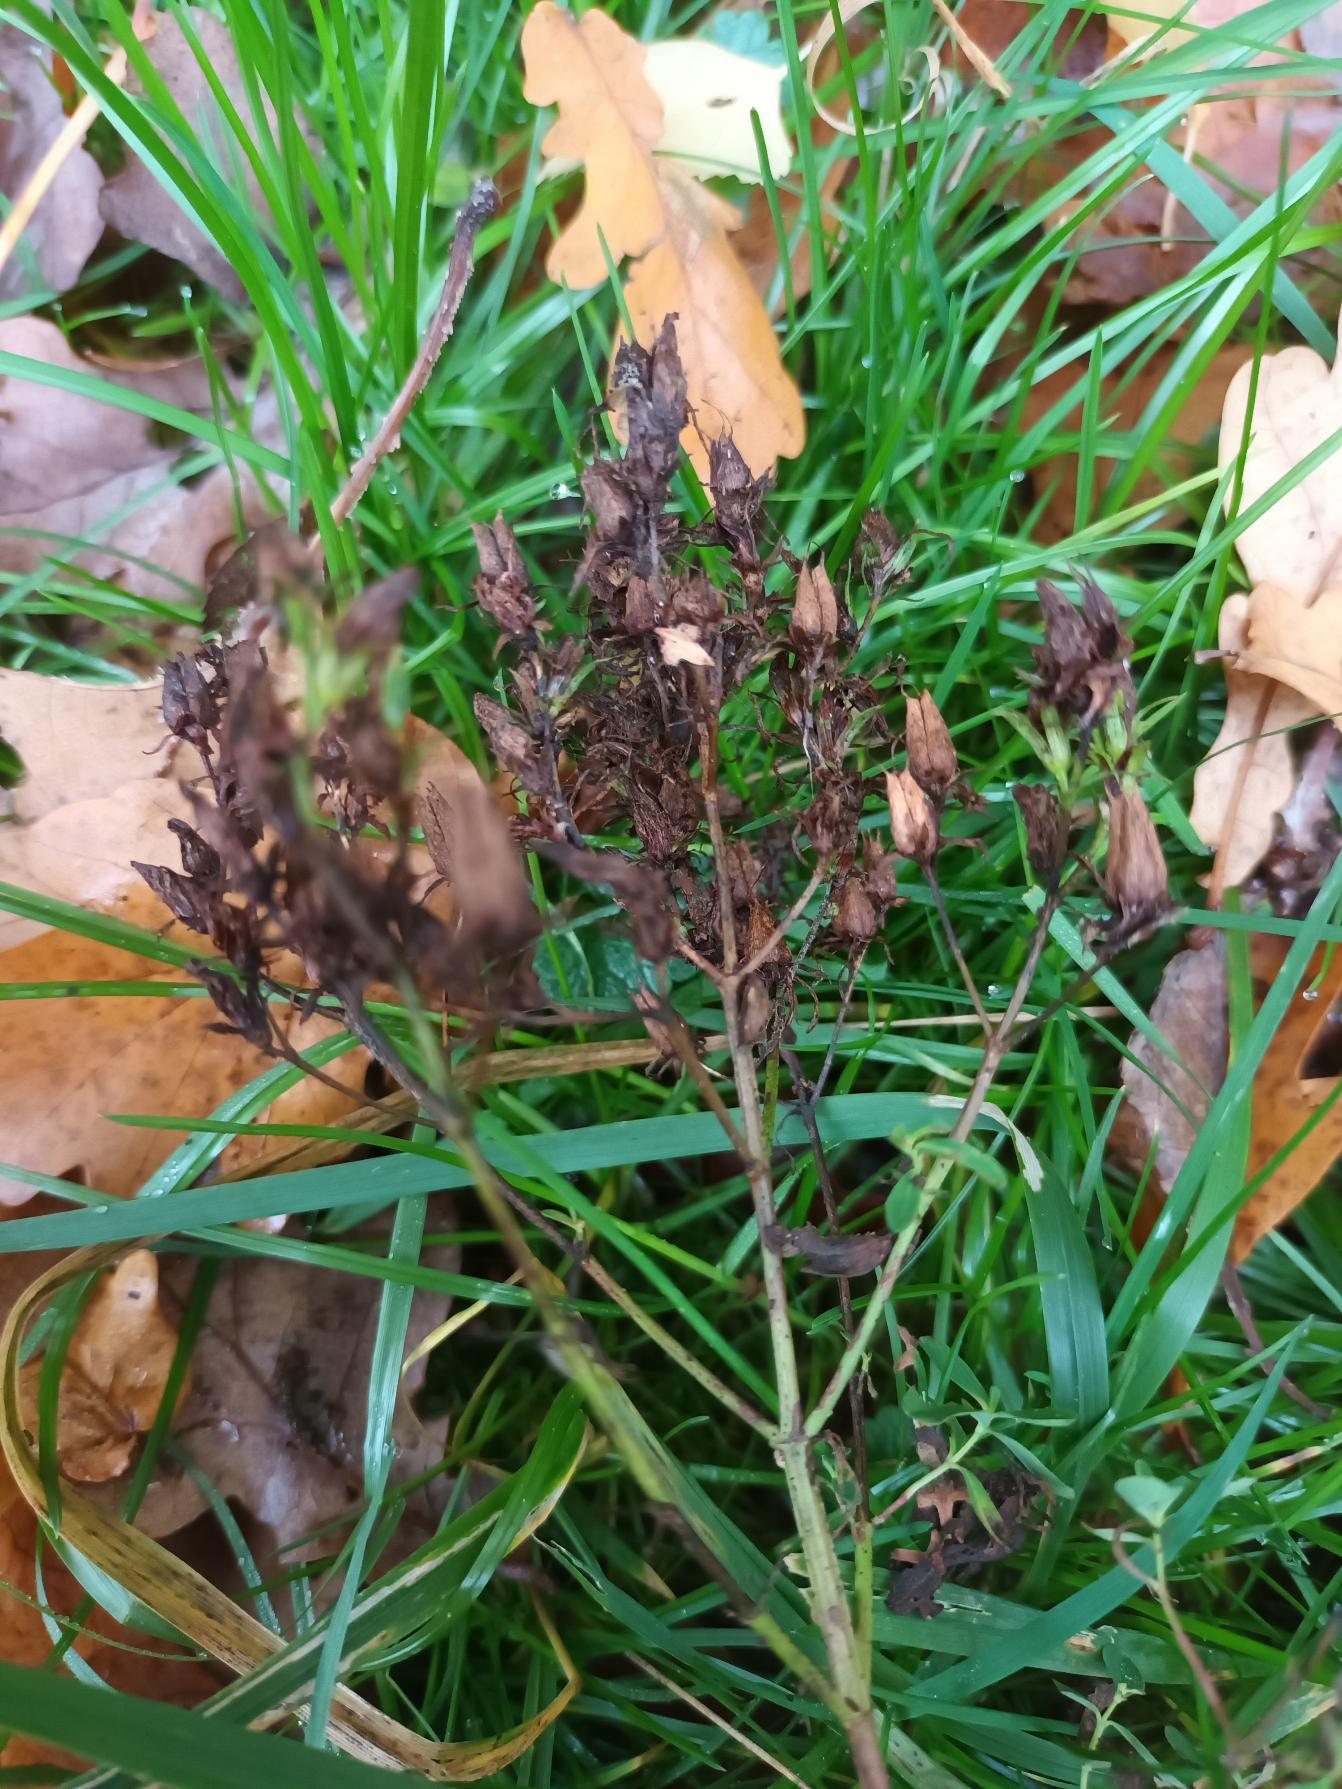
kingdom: Plantae
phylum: Tracheophyta
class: Magnoliopsida
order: Malpighiales
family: Hypericaceae
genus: Hypericum
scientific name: Hypericum perforatum
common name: Prikbladet perikon
